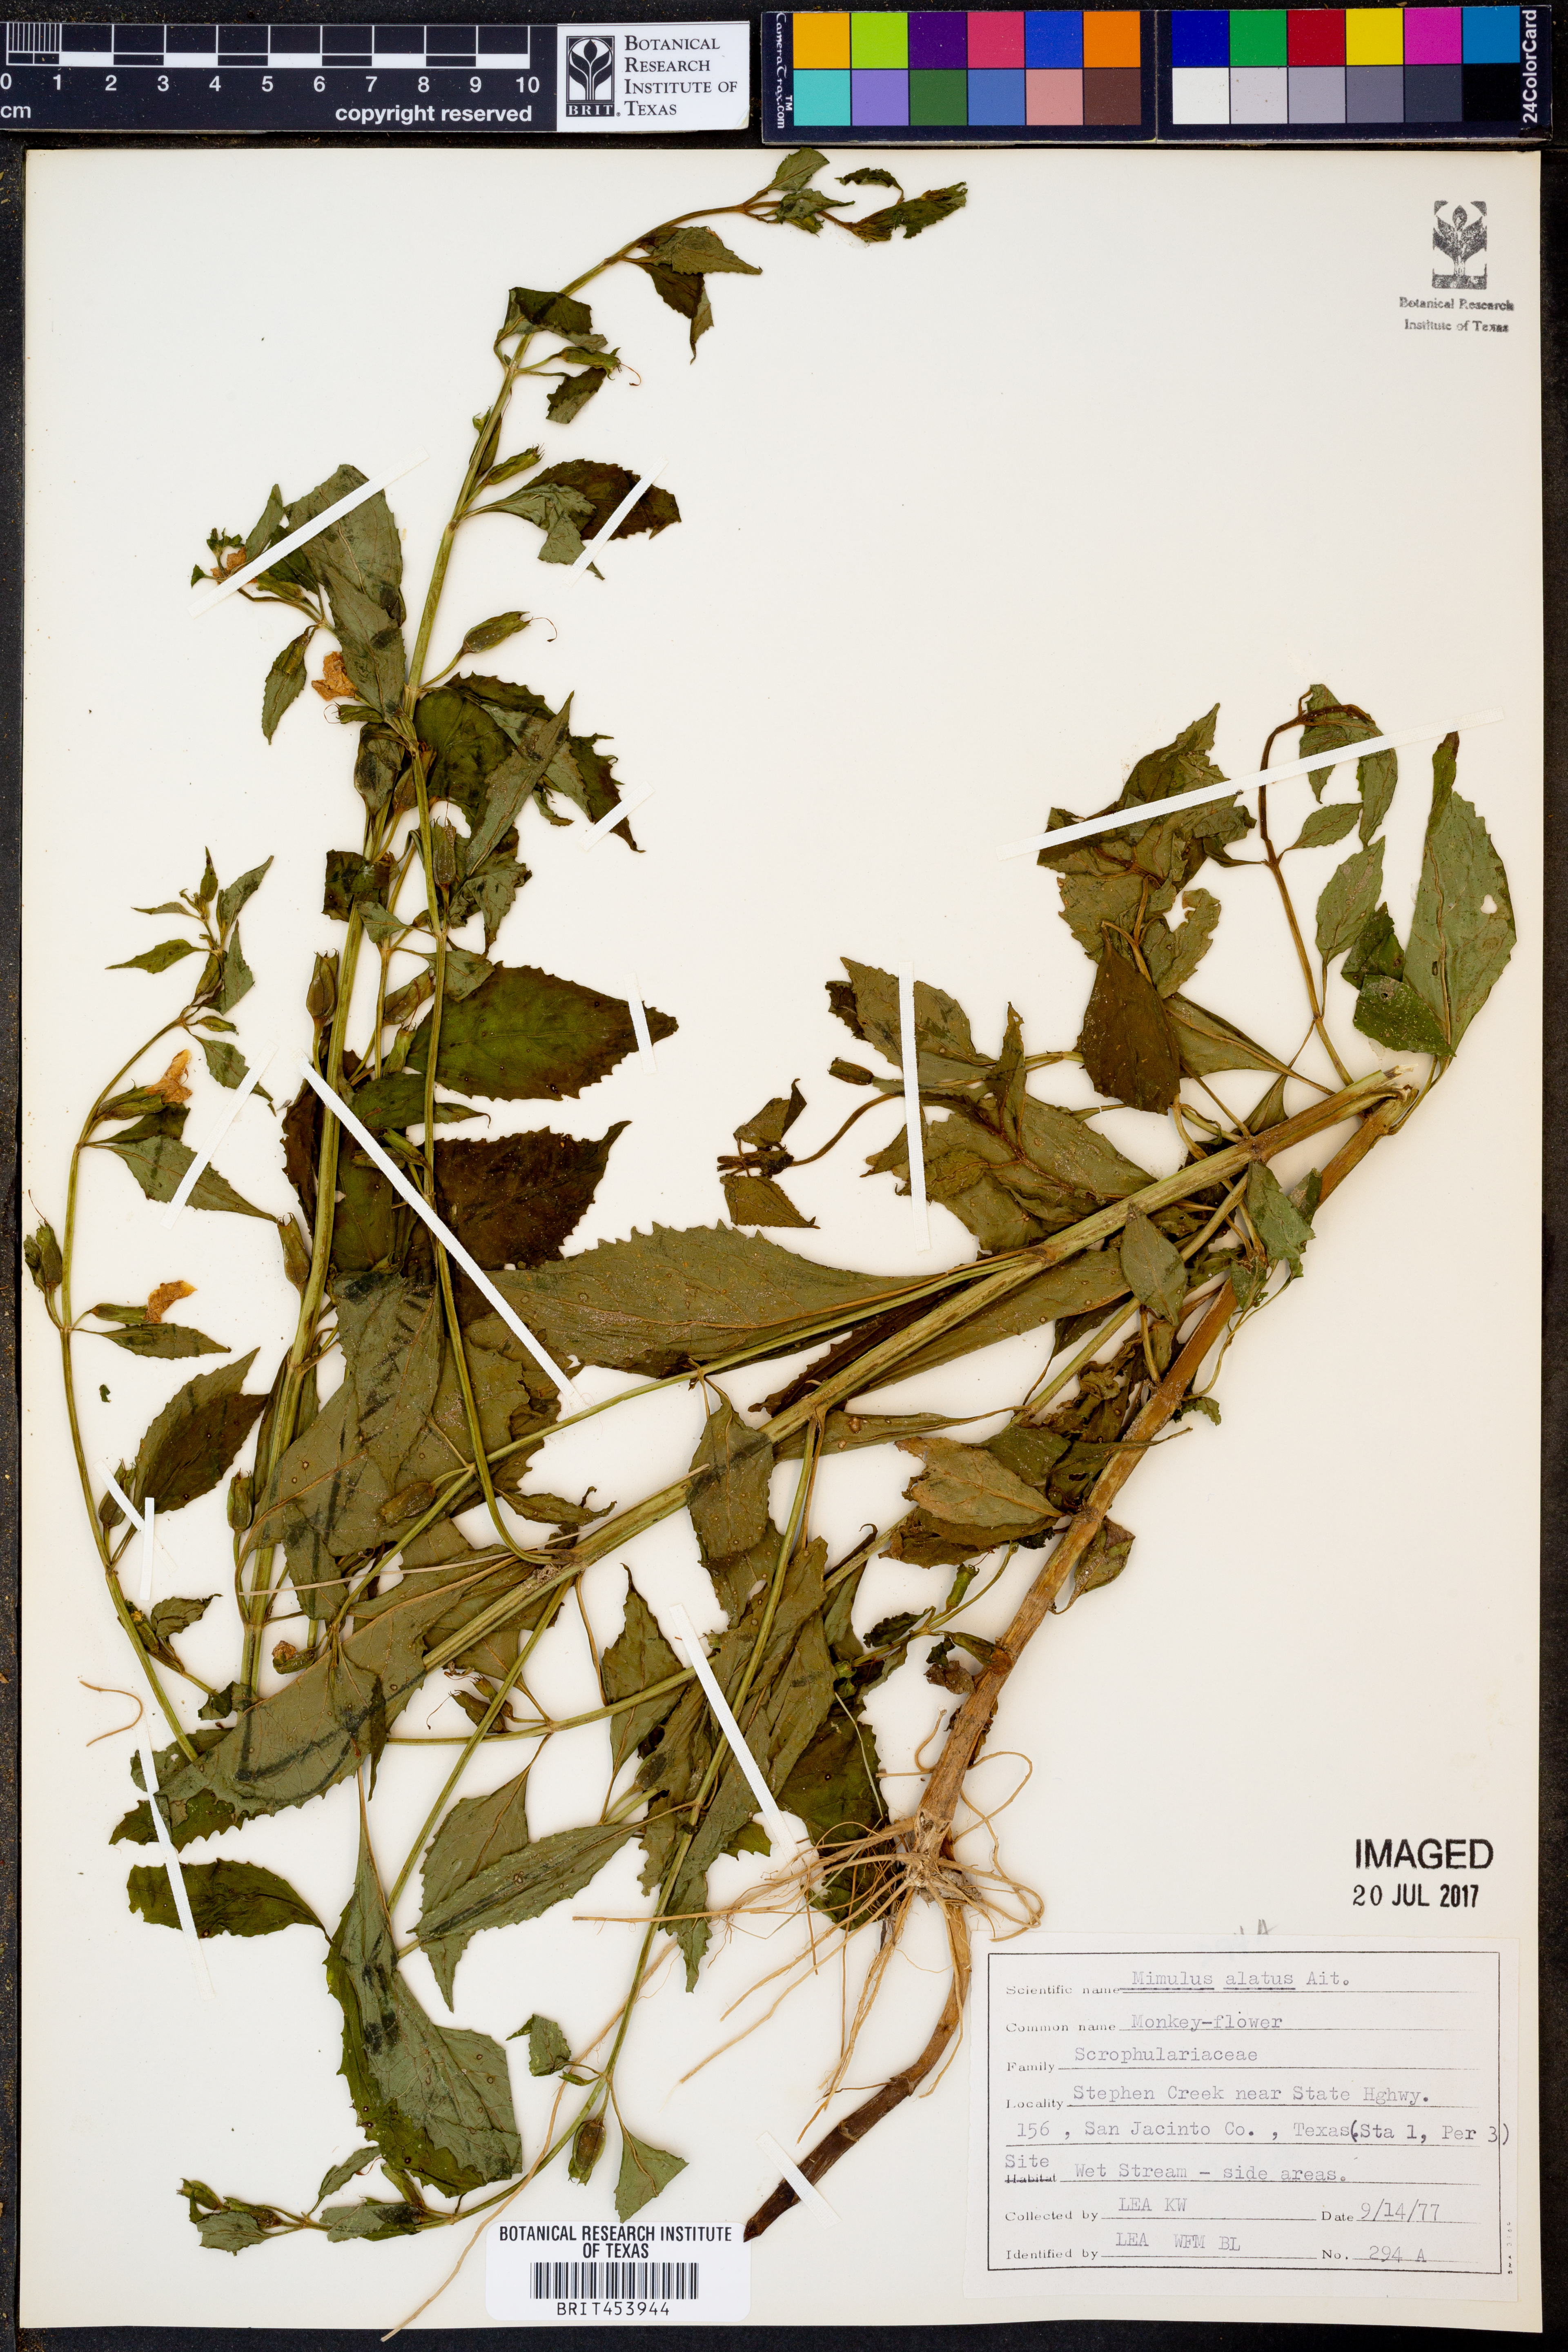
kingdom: Plantae
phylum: Tracheophyta
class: Magnoliopsida
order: Lamiales
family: Phrymaceae
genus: Mimulus
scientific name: Mimulus alatus
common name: Sharp-wing monkey-flower
